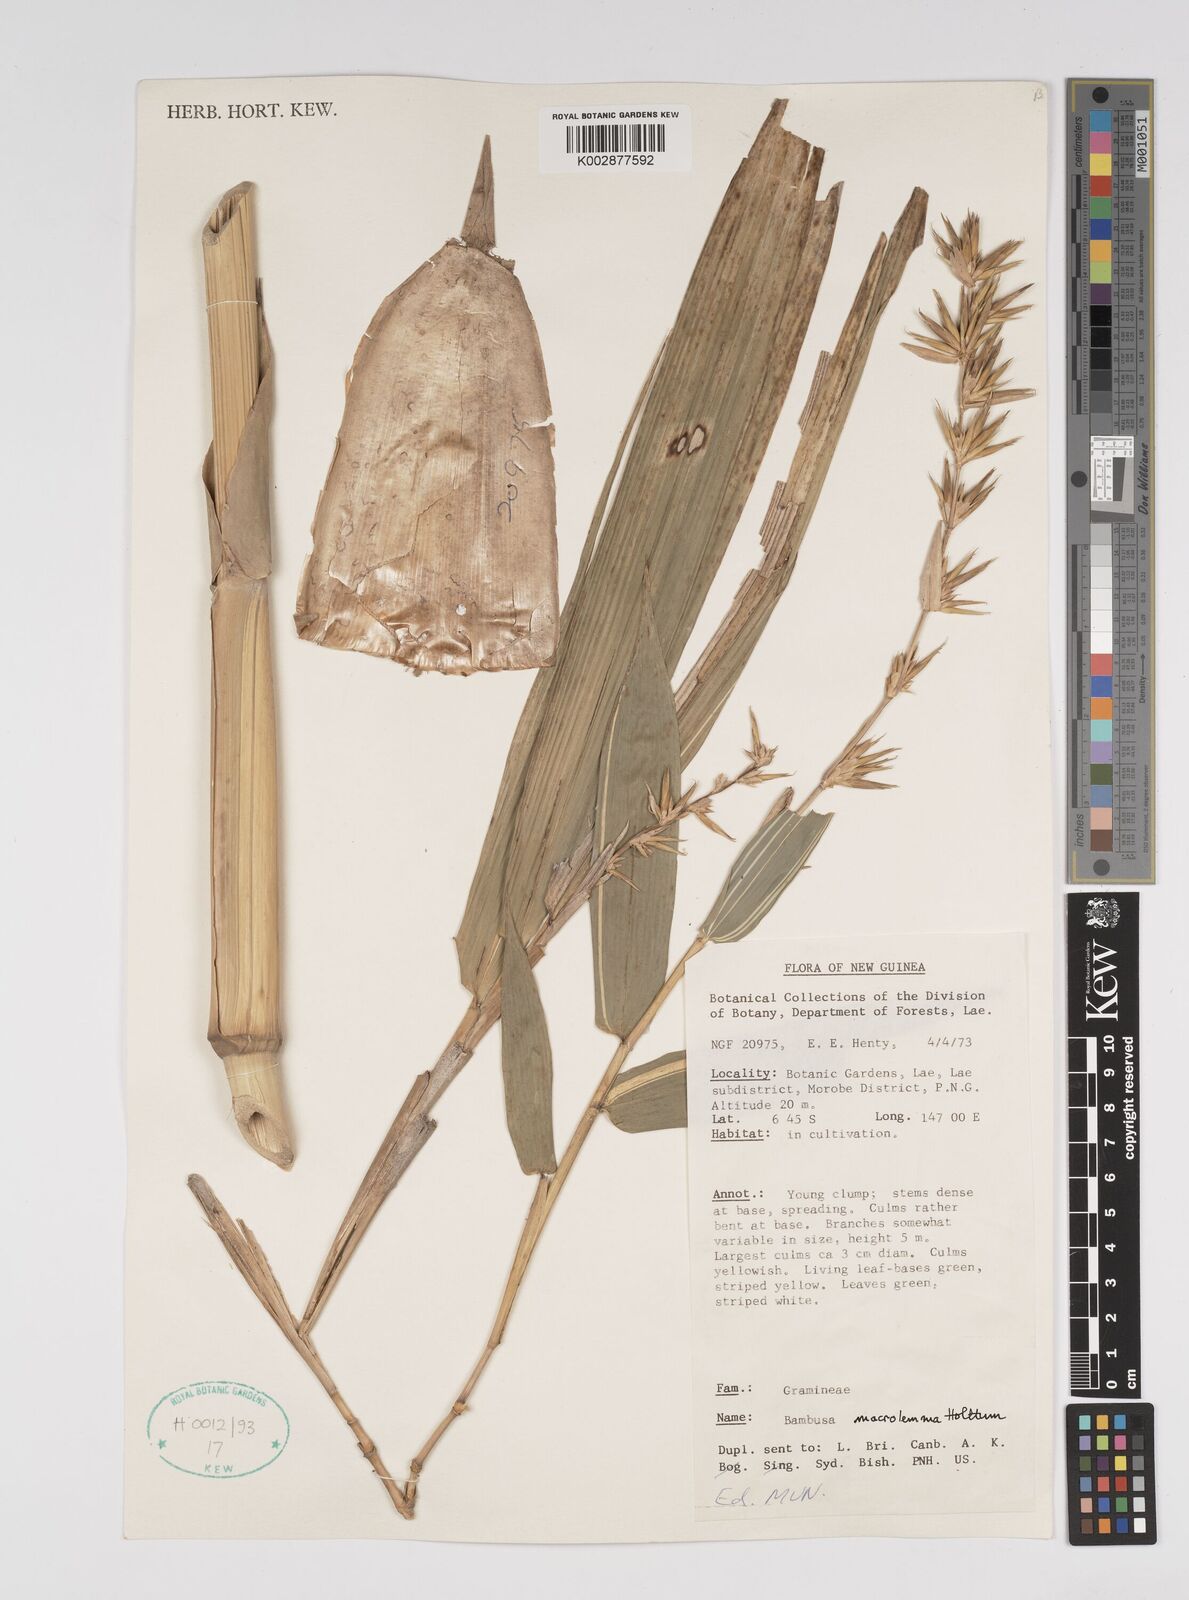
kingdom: Plantae
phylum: Tracheophyta
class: Liliopsida
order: Poales
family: Poaceae
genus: Bambusa
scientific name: Bambusa macrolemma
